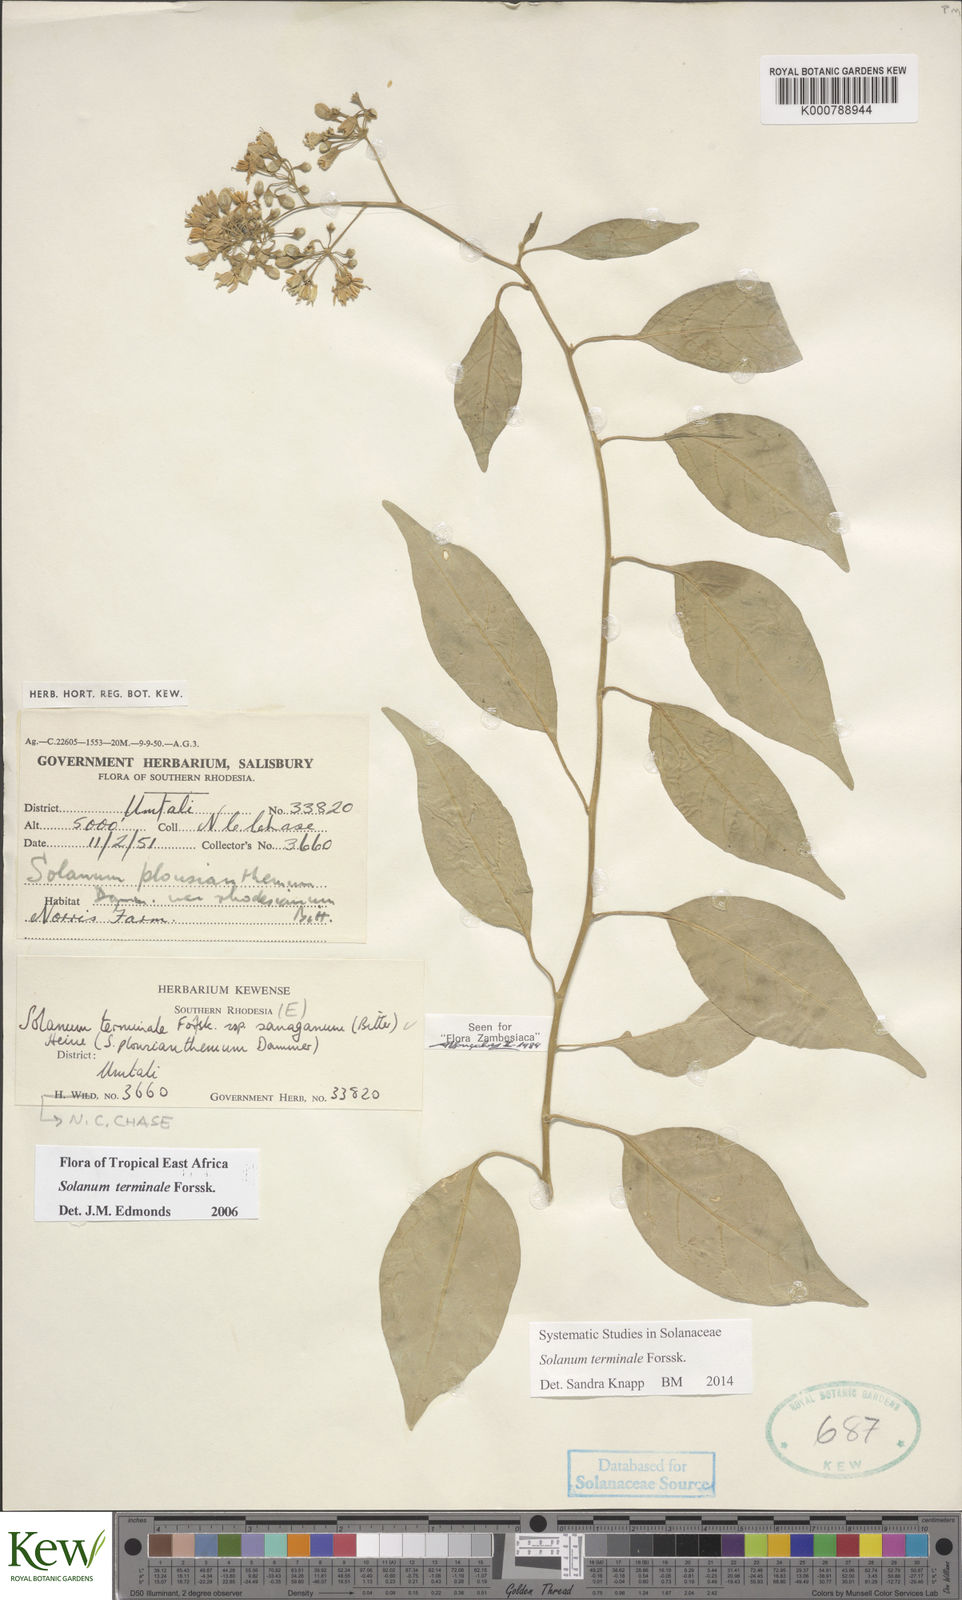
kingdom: Plantae
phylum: Tracheophyta
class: Magnoliopsida
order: Solanales
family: Solanaceae
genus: Solanum
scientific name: Solanum terminale
